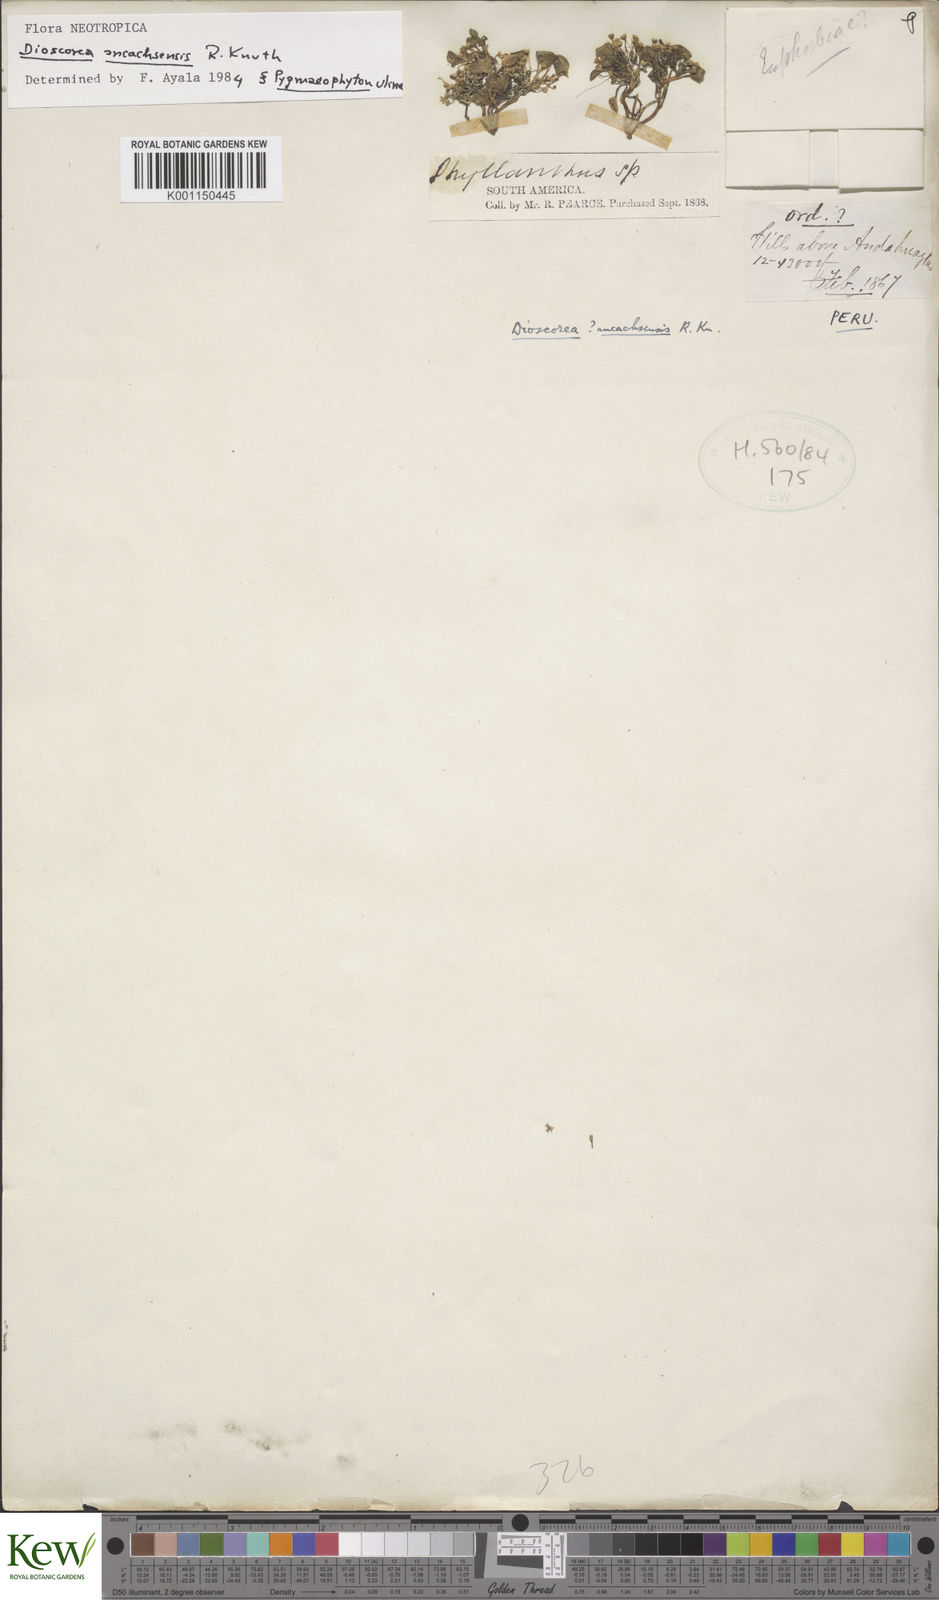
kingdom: Plantae
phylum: Tracheophyta
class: Liliopsida
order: Dioscoreales
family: Dioscoreaceae
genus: Dioscorea
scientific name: Dioscorea ancachsensis
